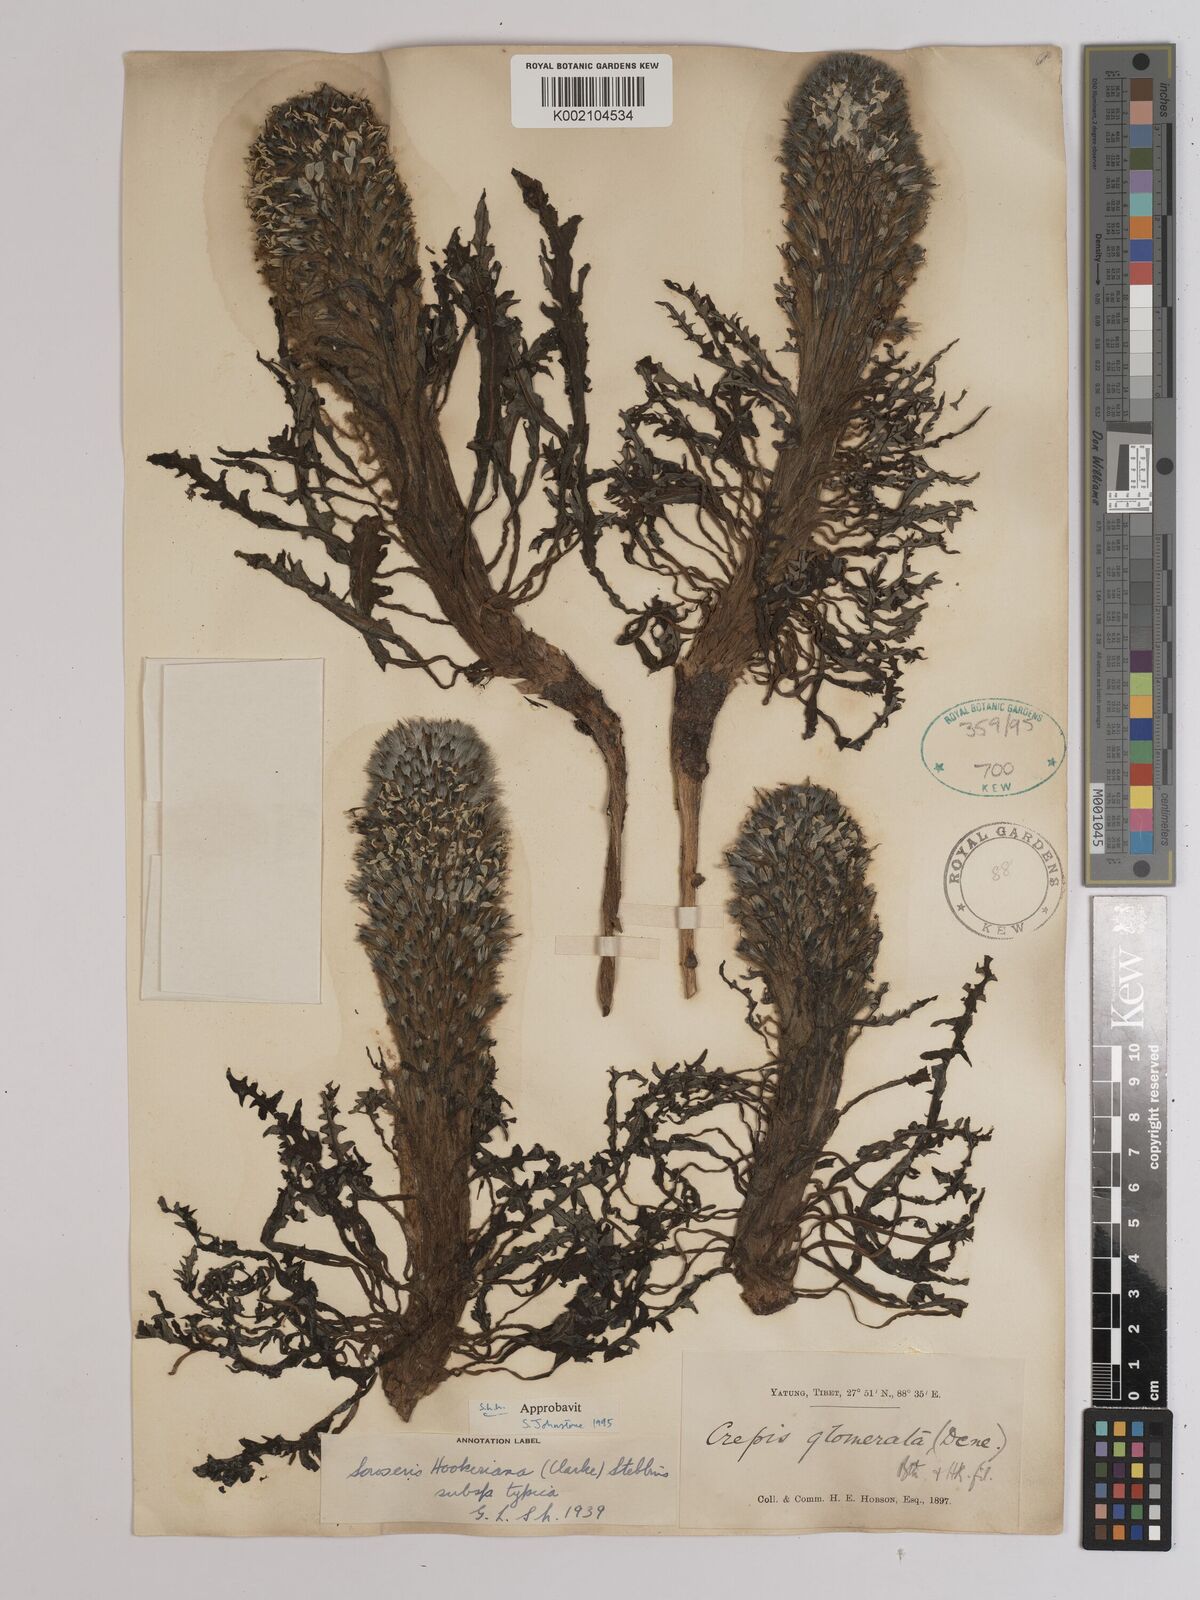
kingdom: Plantae
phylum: Tracheophyta
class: Magnoliopsida
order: Asterales
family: Asteraceae
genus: Soroseris
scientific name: Soroseris hookeriana
